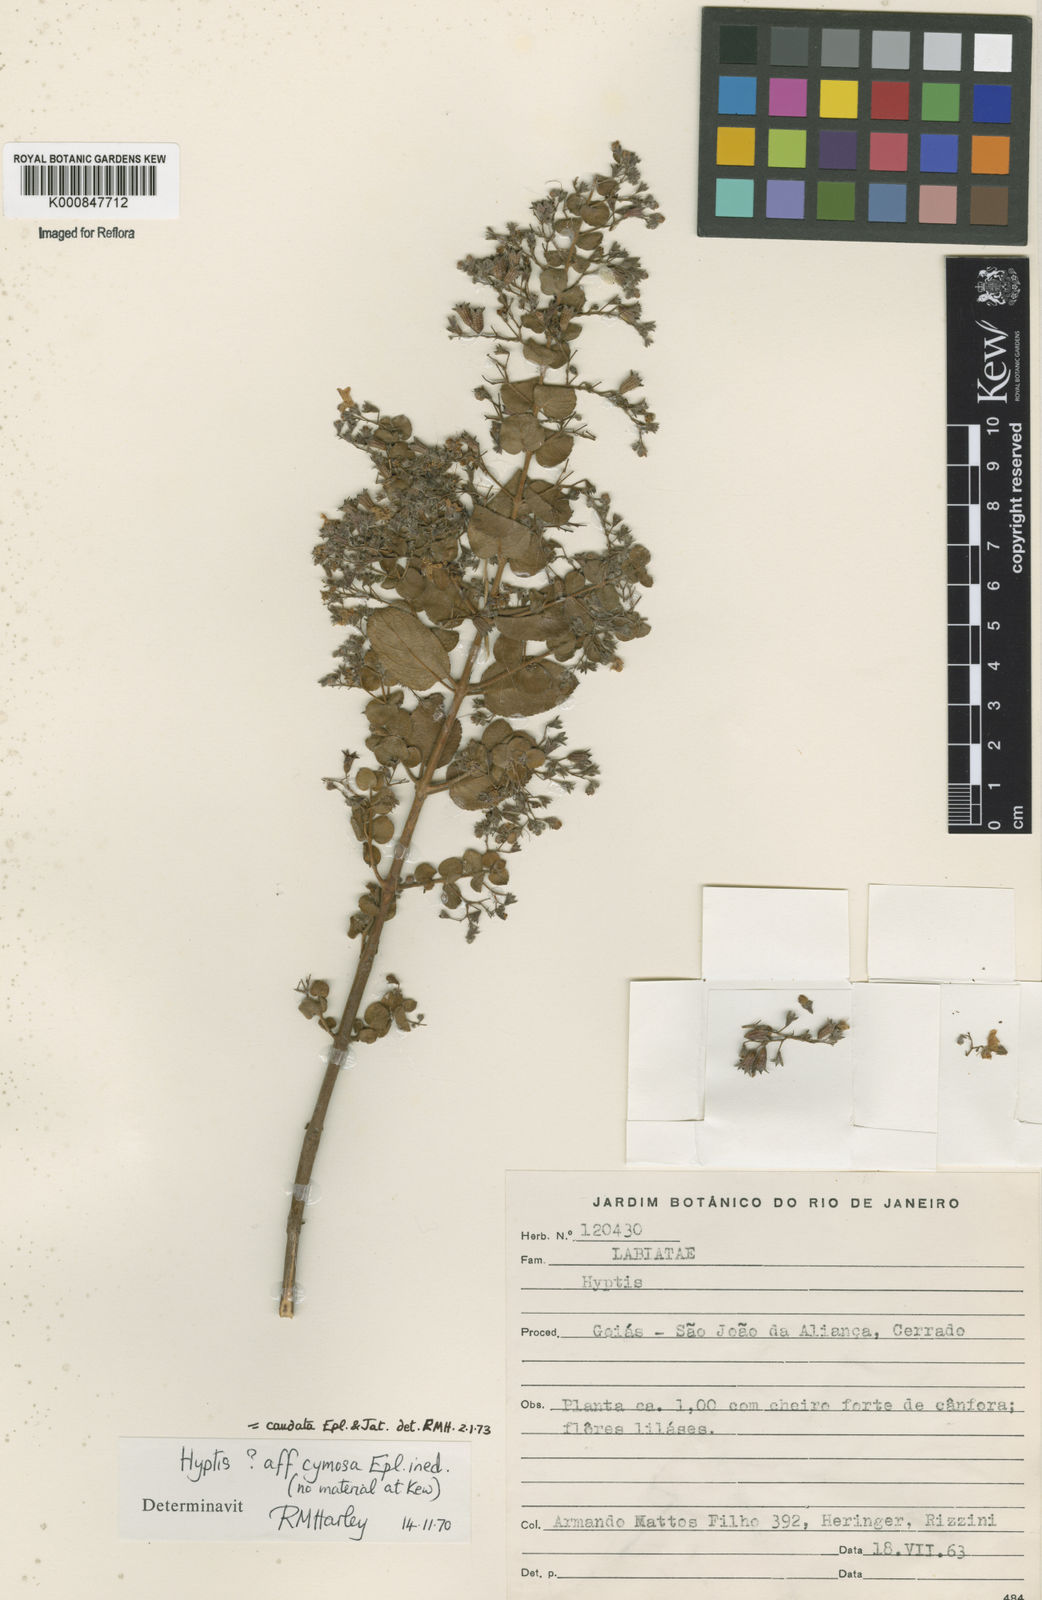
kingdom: Plantae
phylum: Tracheophyta
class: Magnoliopsida
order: Lamiales
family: Lamiaceae
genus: Hyptidendron
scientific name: Hyptidendron
